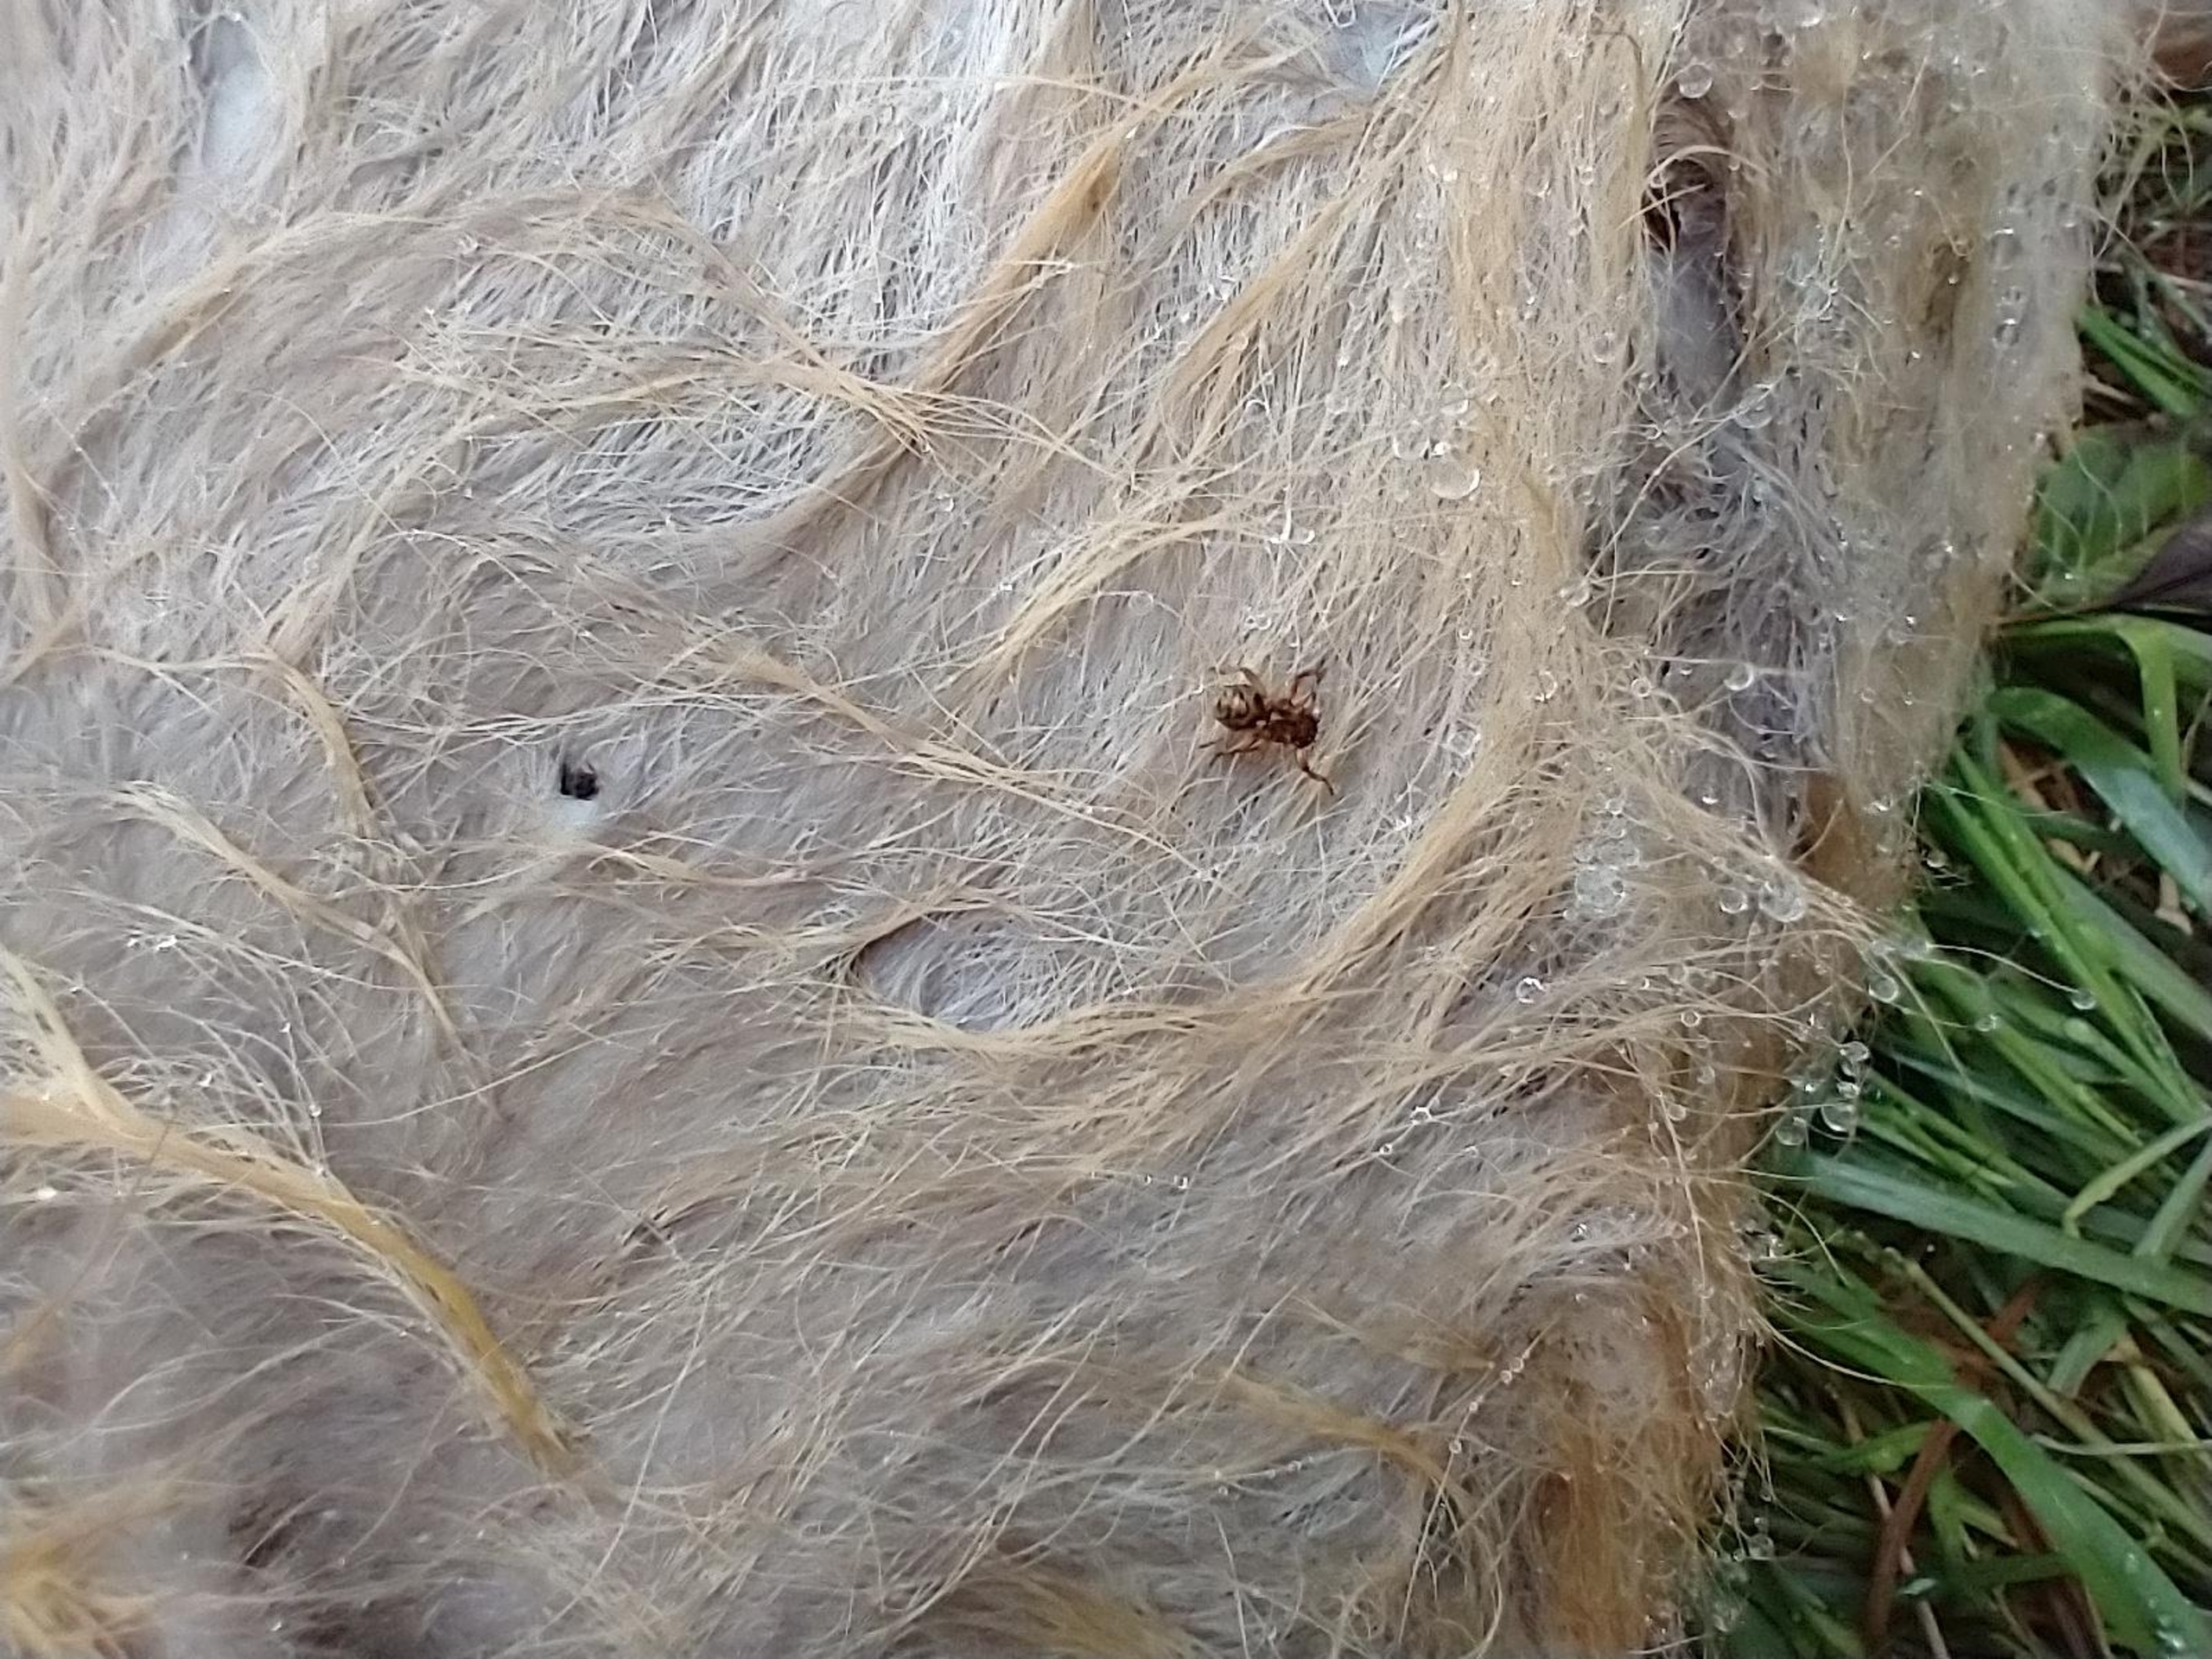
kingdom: Animalia
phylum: Arthropoda
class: Insecta
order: Diptera
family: Hippoboscidae
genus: Lipoptena
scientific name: Lipoptena cervi
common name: Hjortelus
